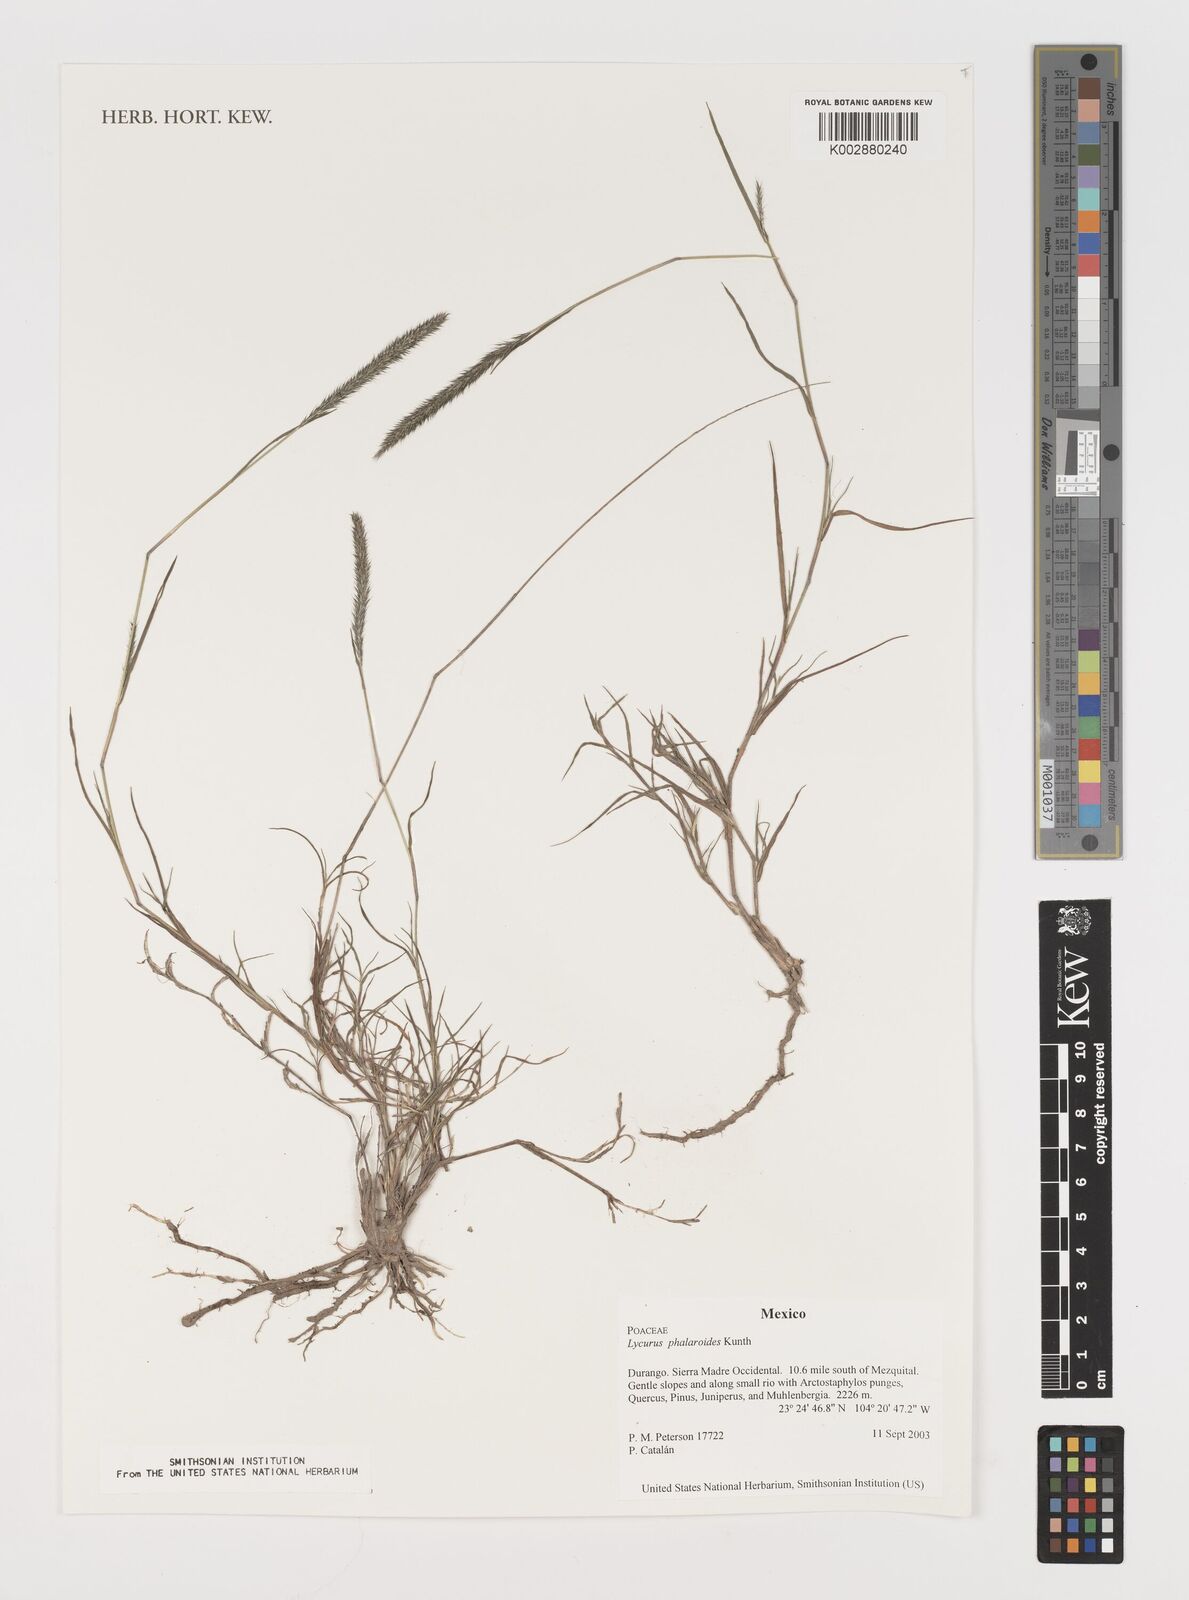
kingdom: Plantae
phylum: Tracheophyta
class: Liliopsida
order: Poales
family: Poaceae
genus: Muhlenbergia
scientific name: Muhlenbergia phalaroides
